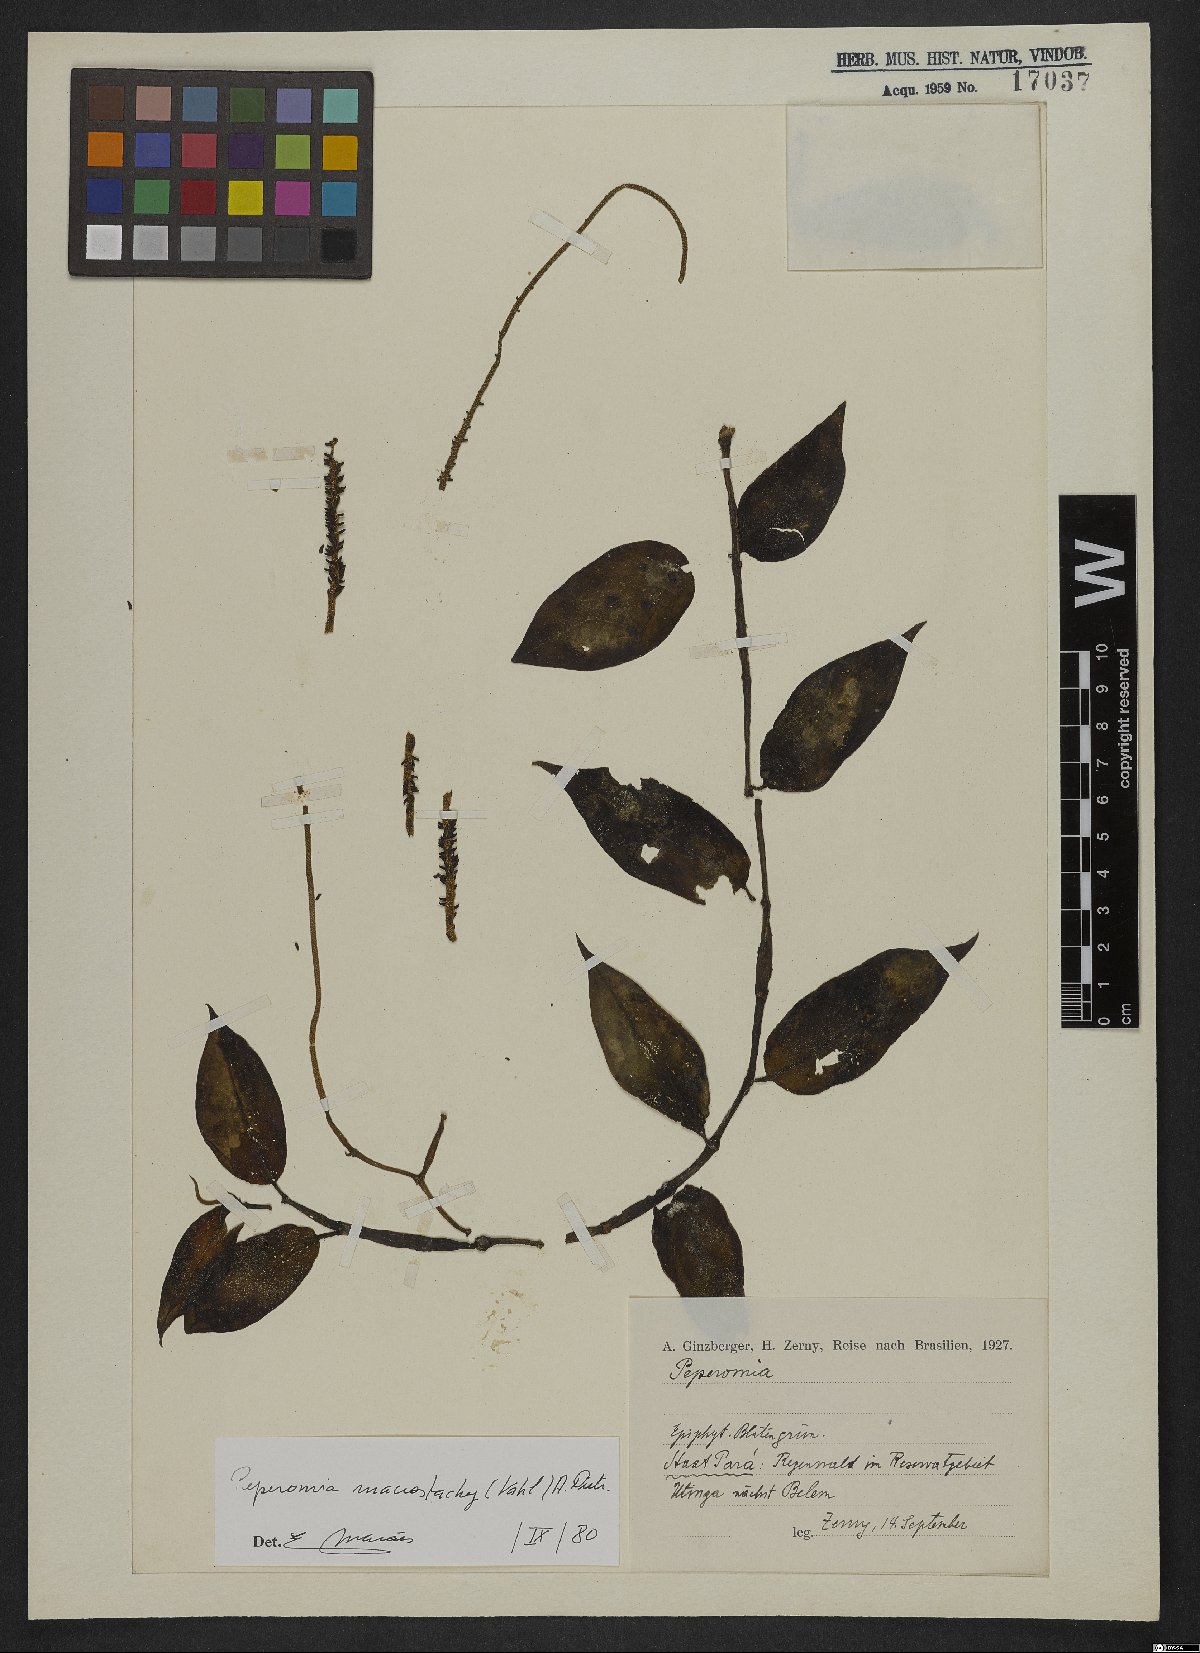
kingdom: Plantae
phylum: Tracheophyta
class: Magnoliopsida
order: Piperales
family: Piperaceae
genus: Peperomia
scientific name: Peperomia macrostachyos
